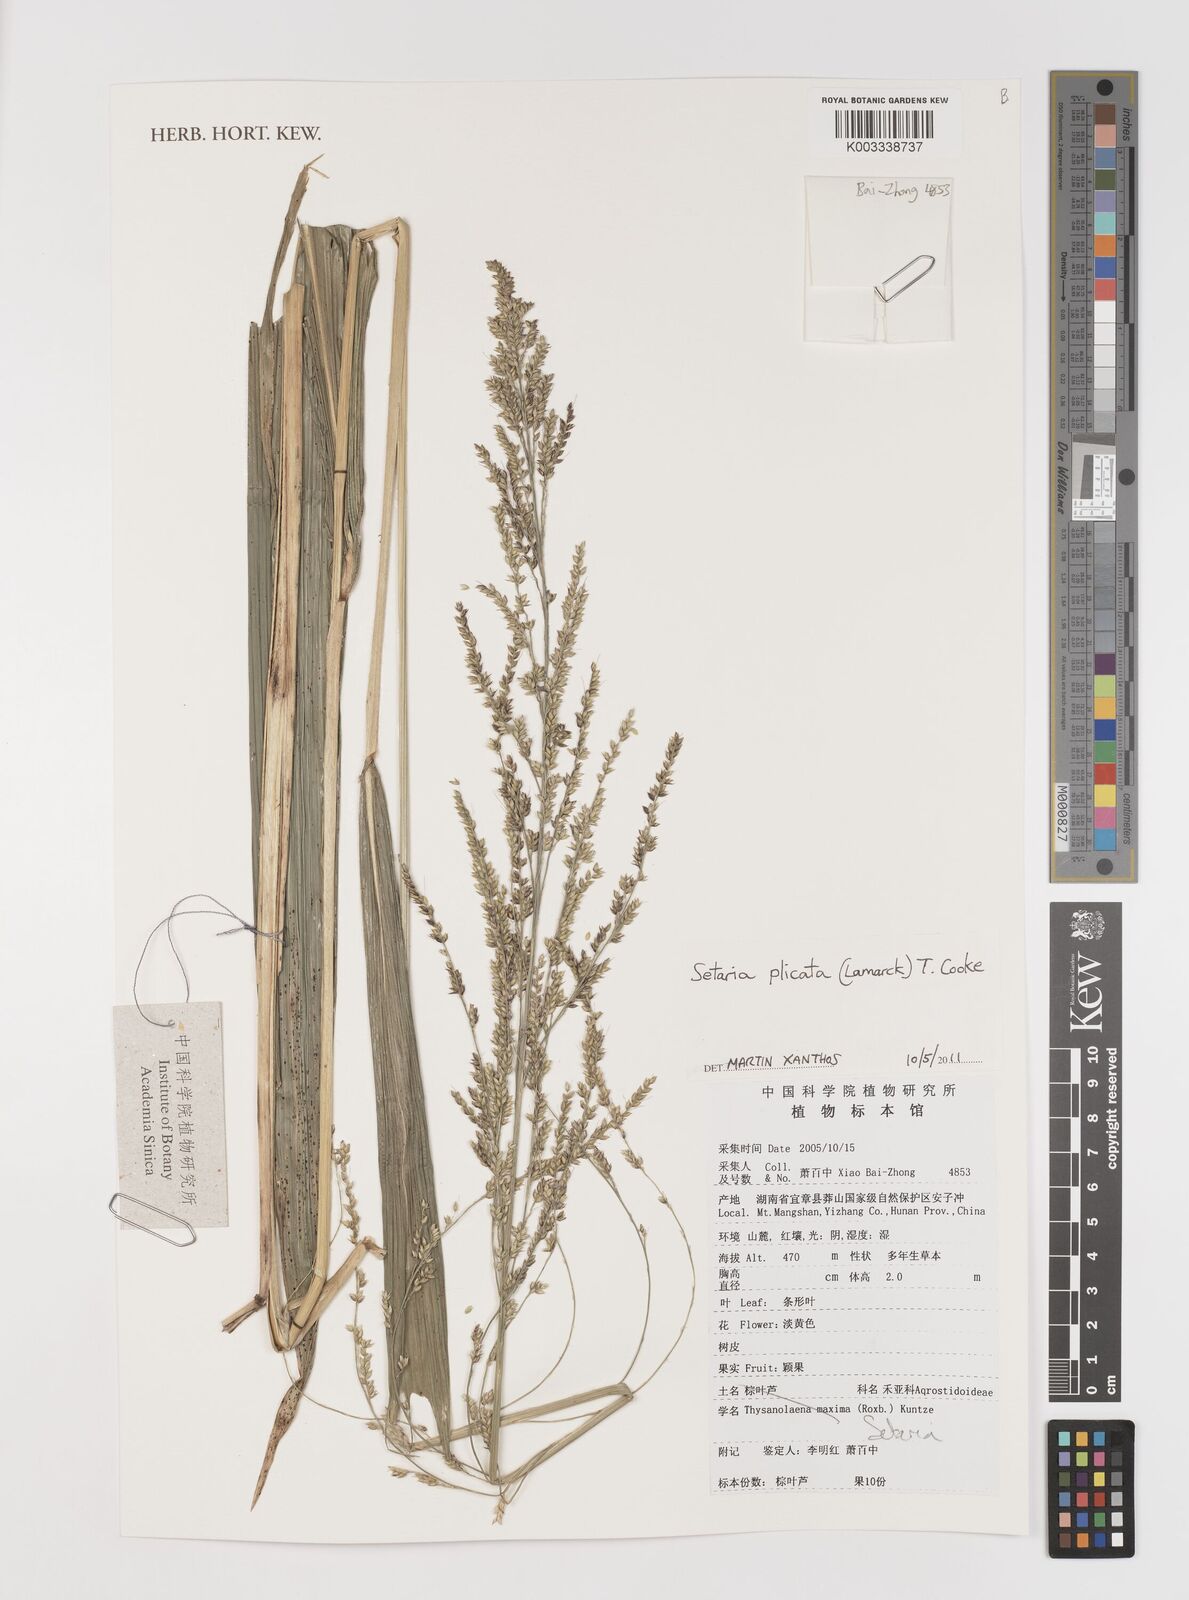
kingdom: Plantae
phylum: Tracheophyta
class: Liliopsida
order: Poales
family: Poaceae
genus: Setaria
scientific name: Setaria plicata
